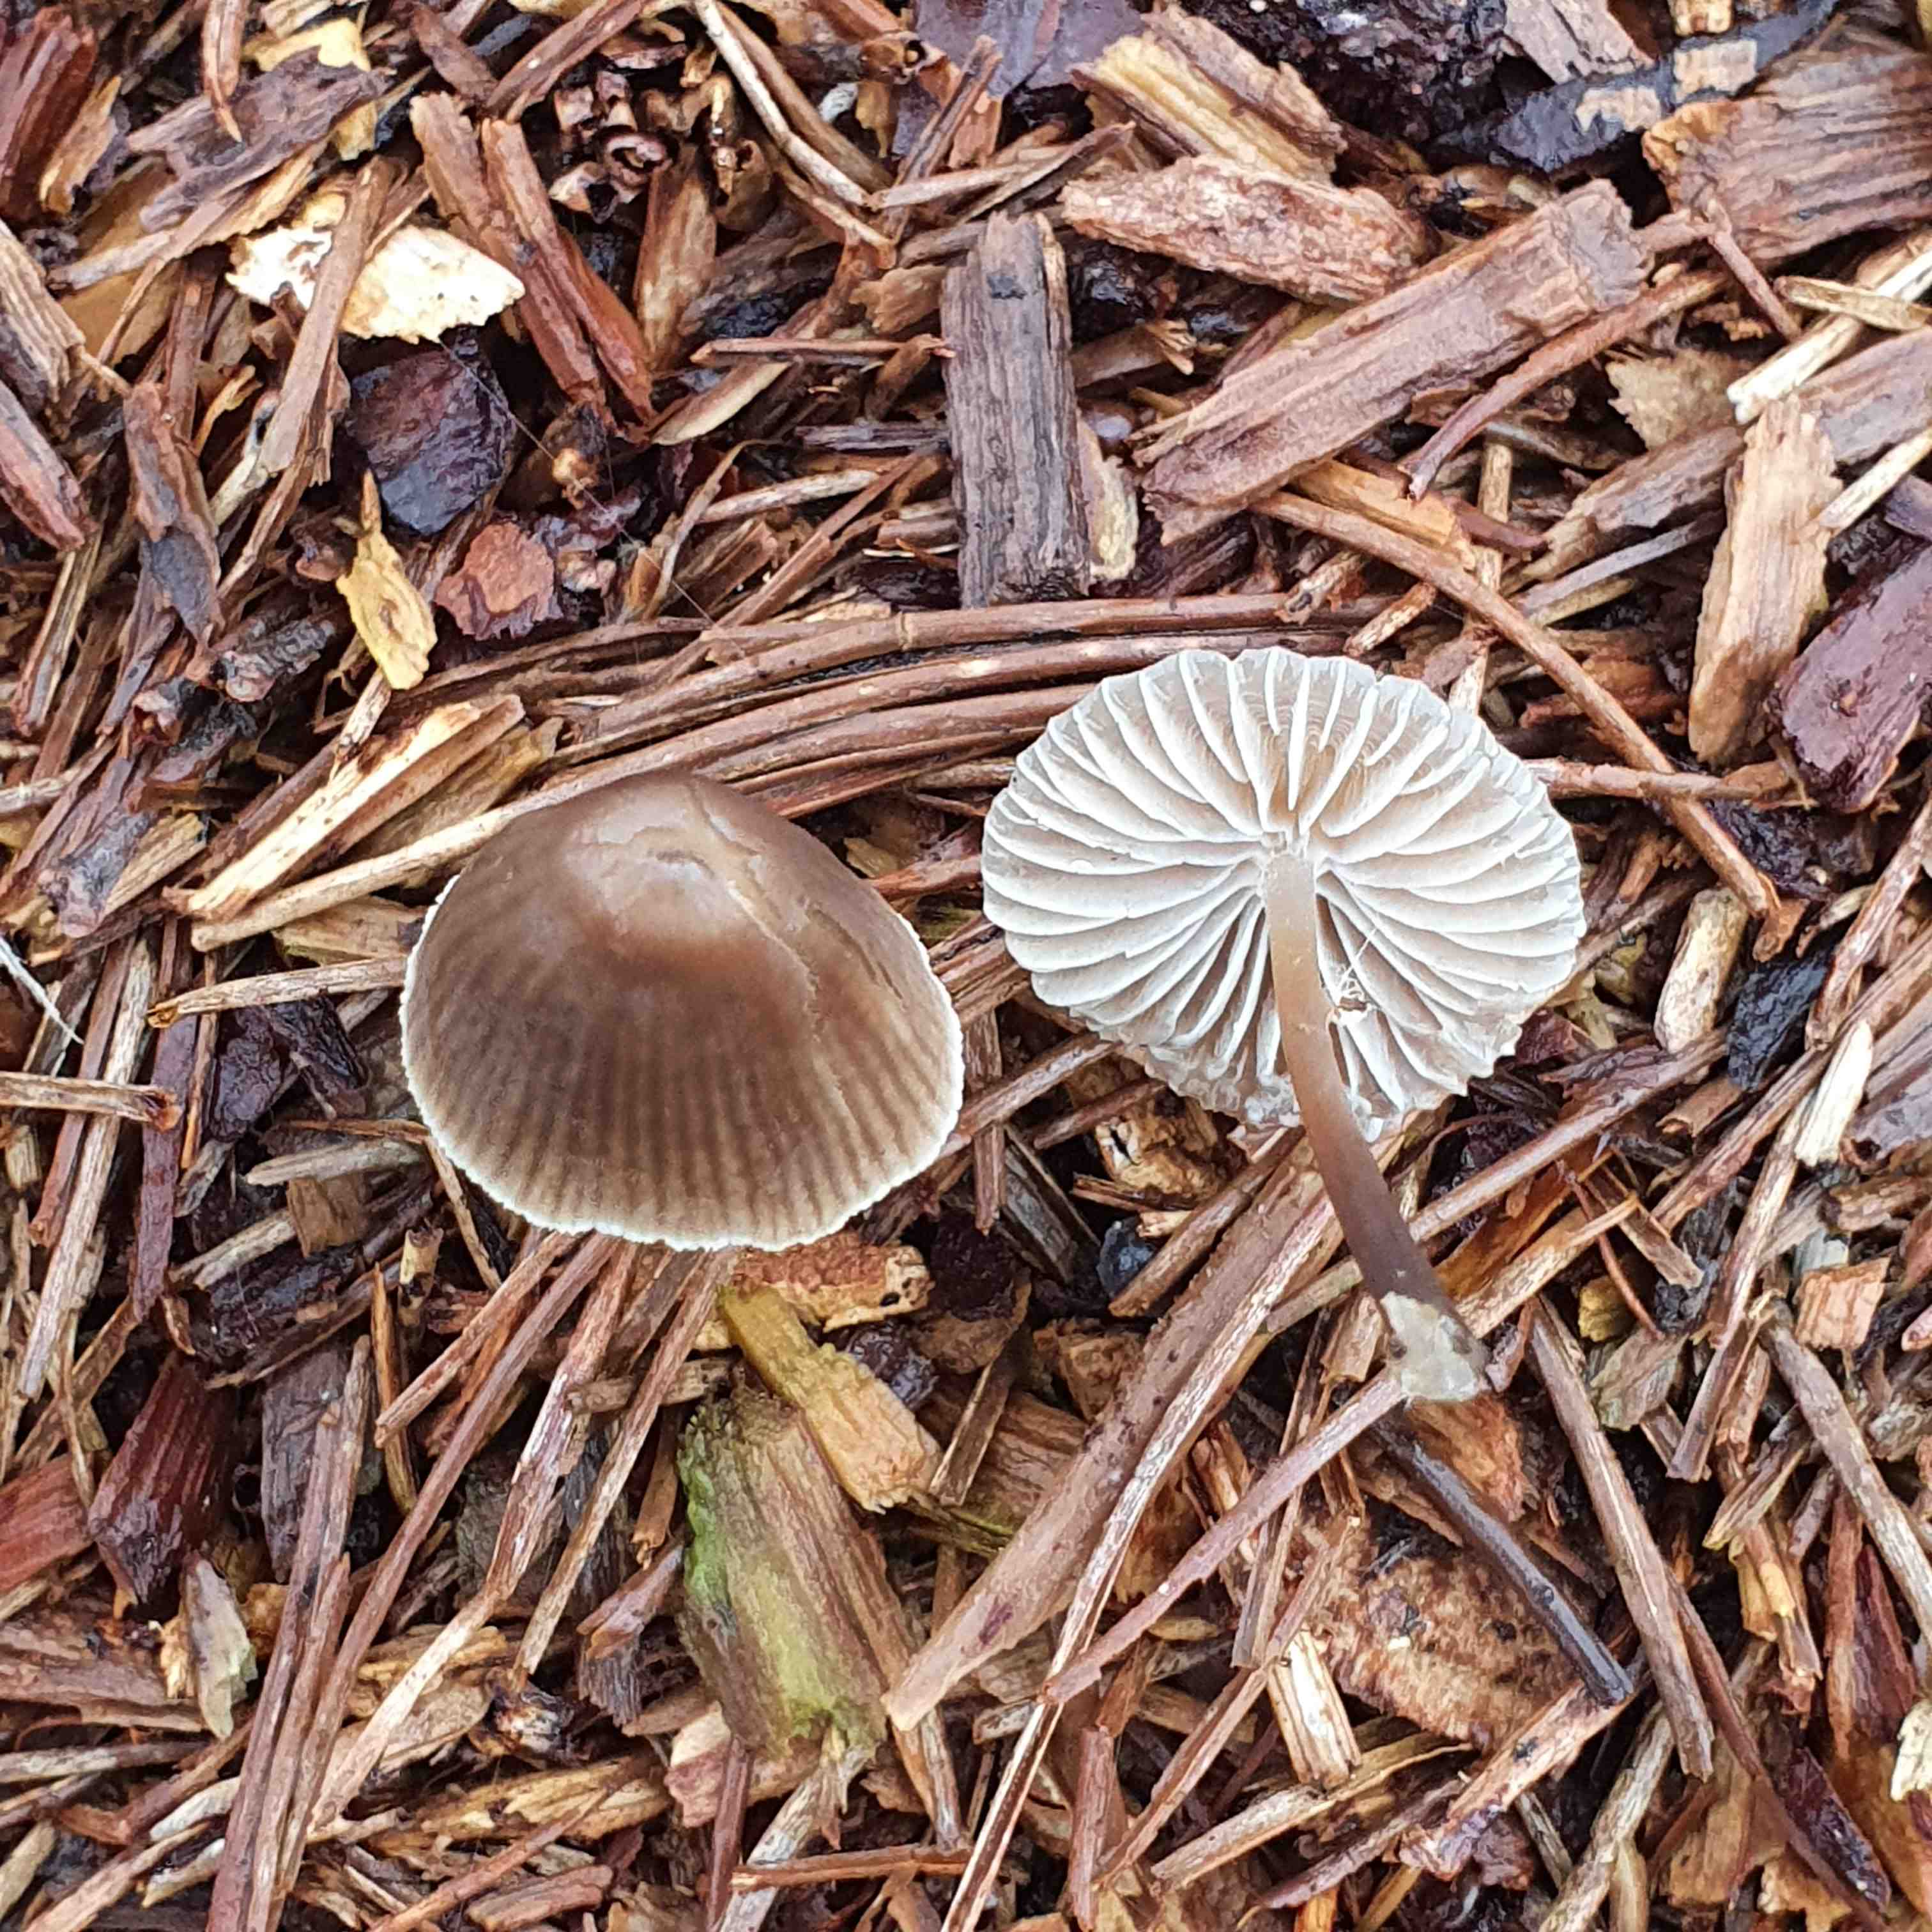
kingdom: Fungi
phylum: Basidiomycota
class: Agaricomycetes
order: Agaricales
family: Mycenaceae
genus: Mycena
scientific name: Mycena leptocephala
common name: klor-huesvamp
